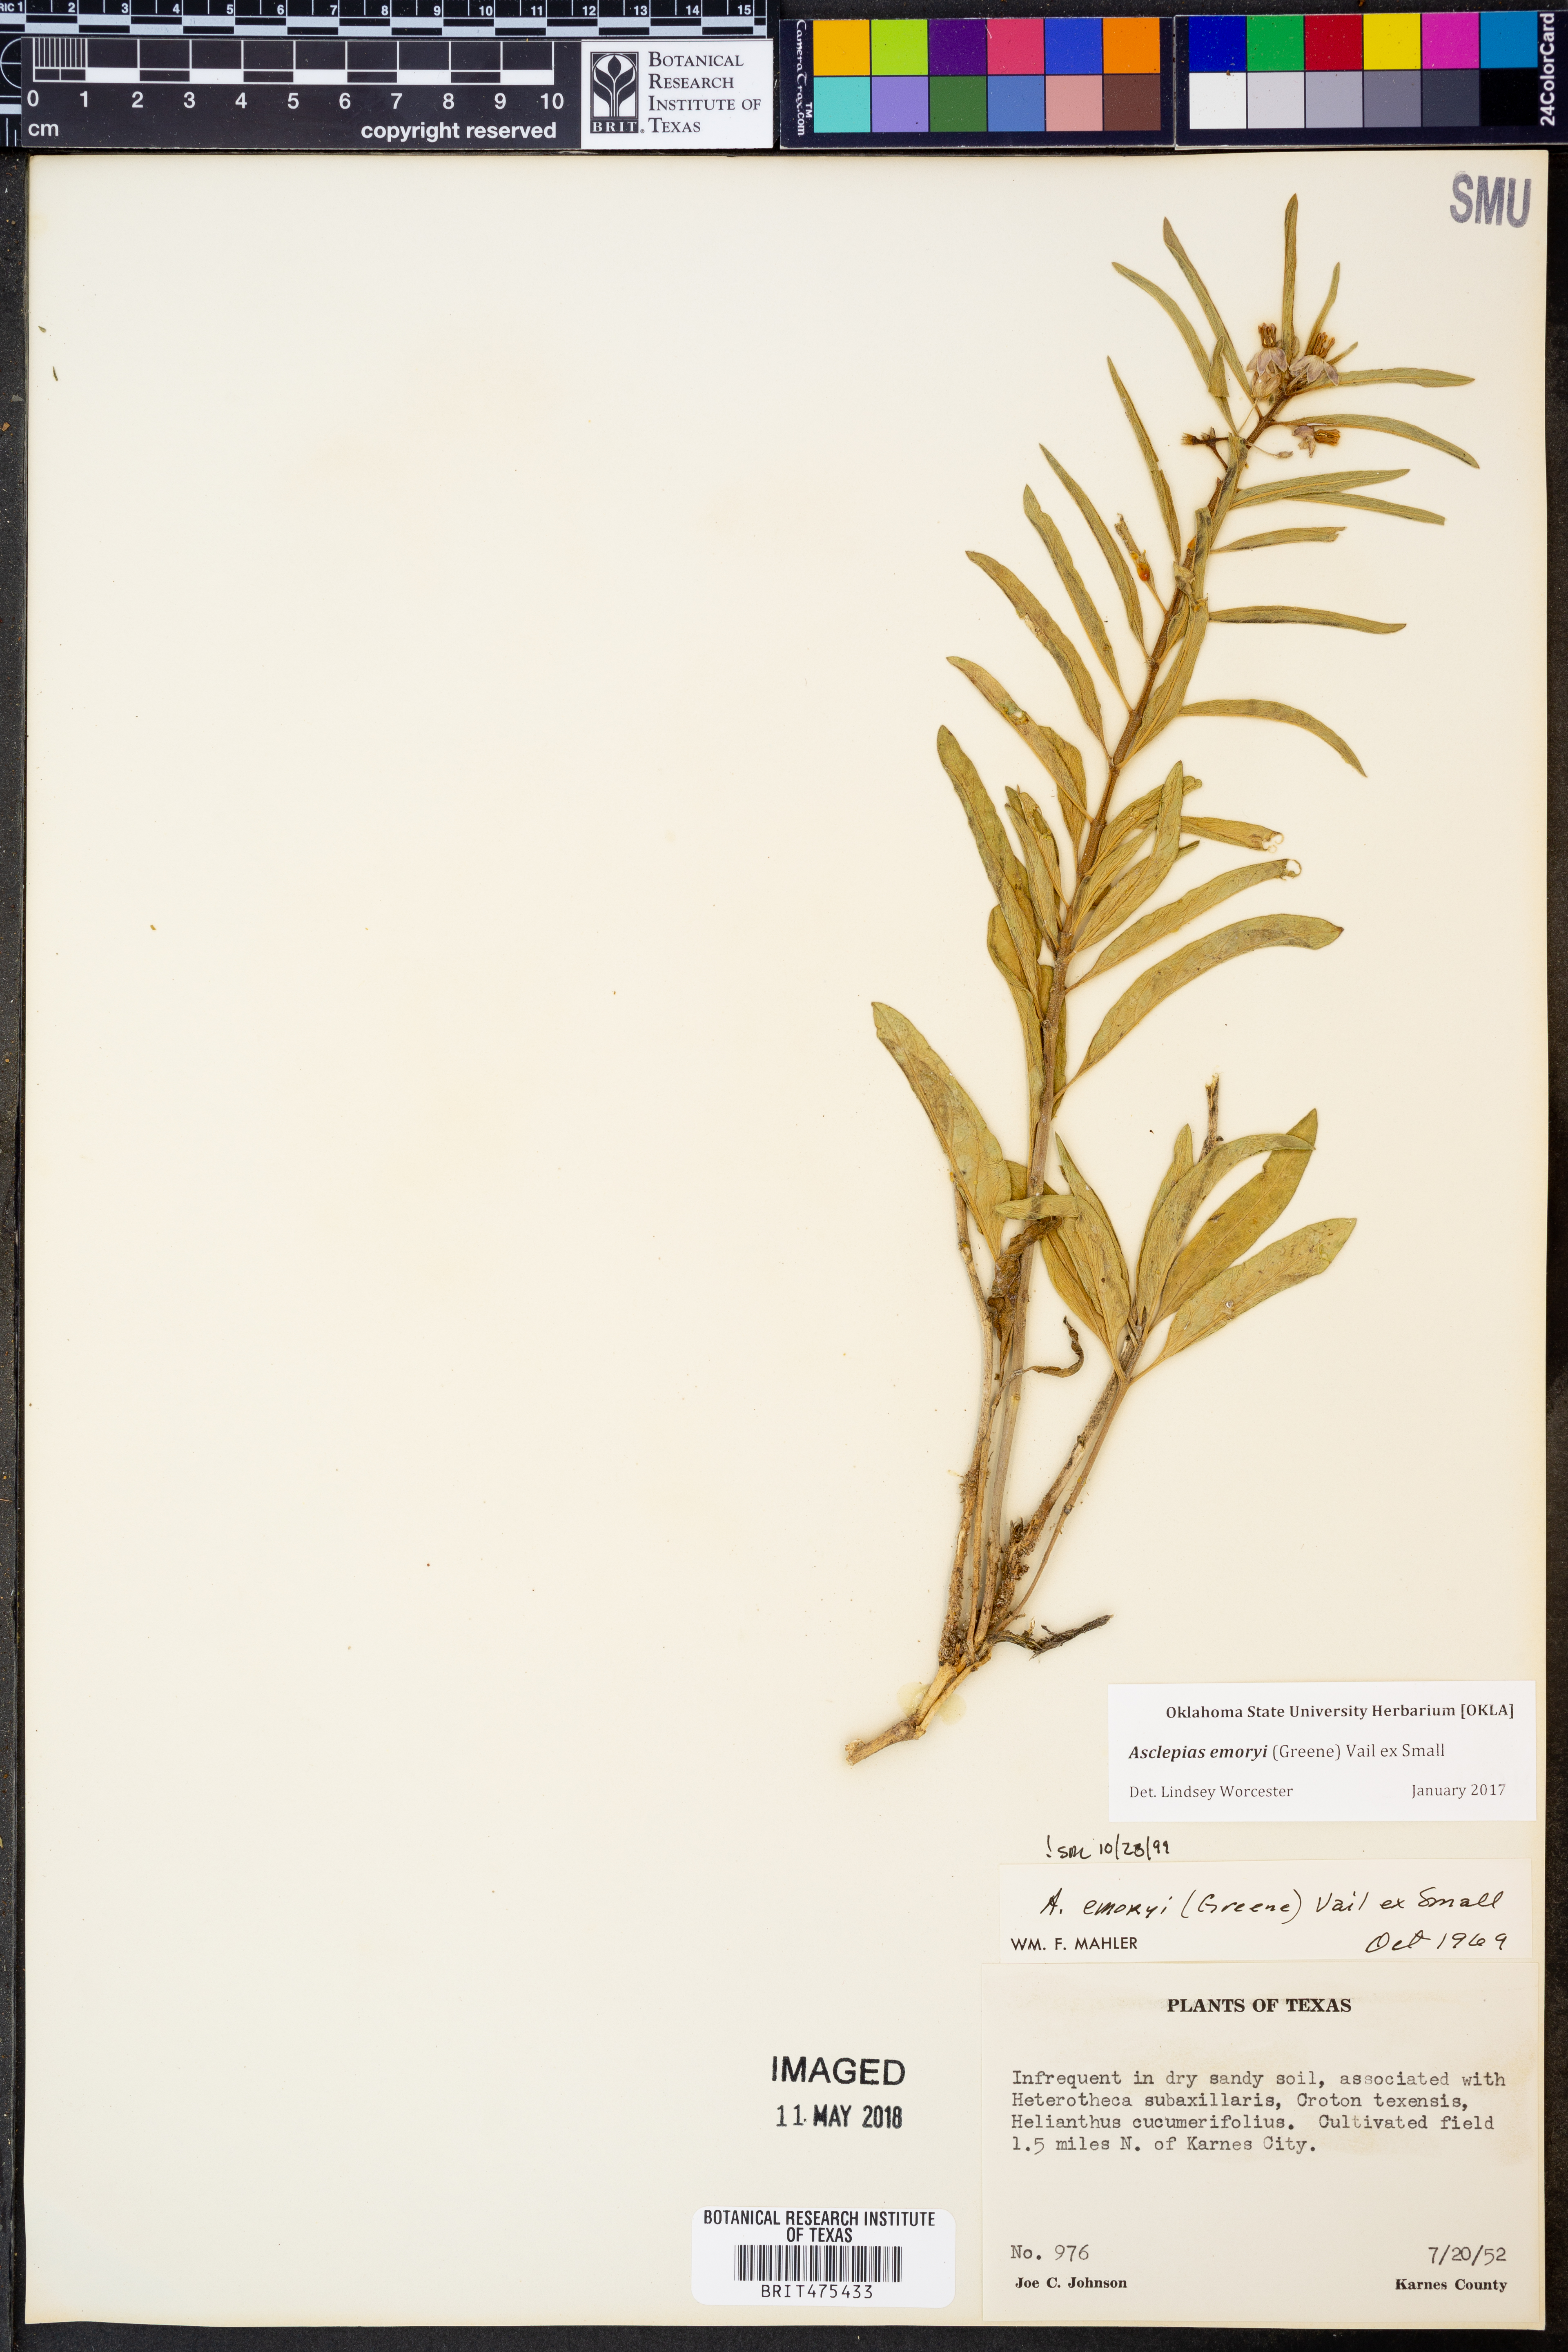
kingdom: Plantae
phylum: Tracheophyta
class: Magnoliopsida
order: Gentianales
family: Apocynaceae
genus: Asclepias
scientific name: Asclepias emoryi
